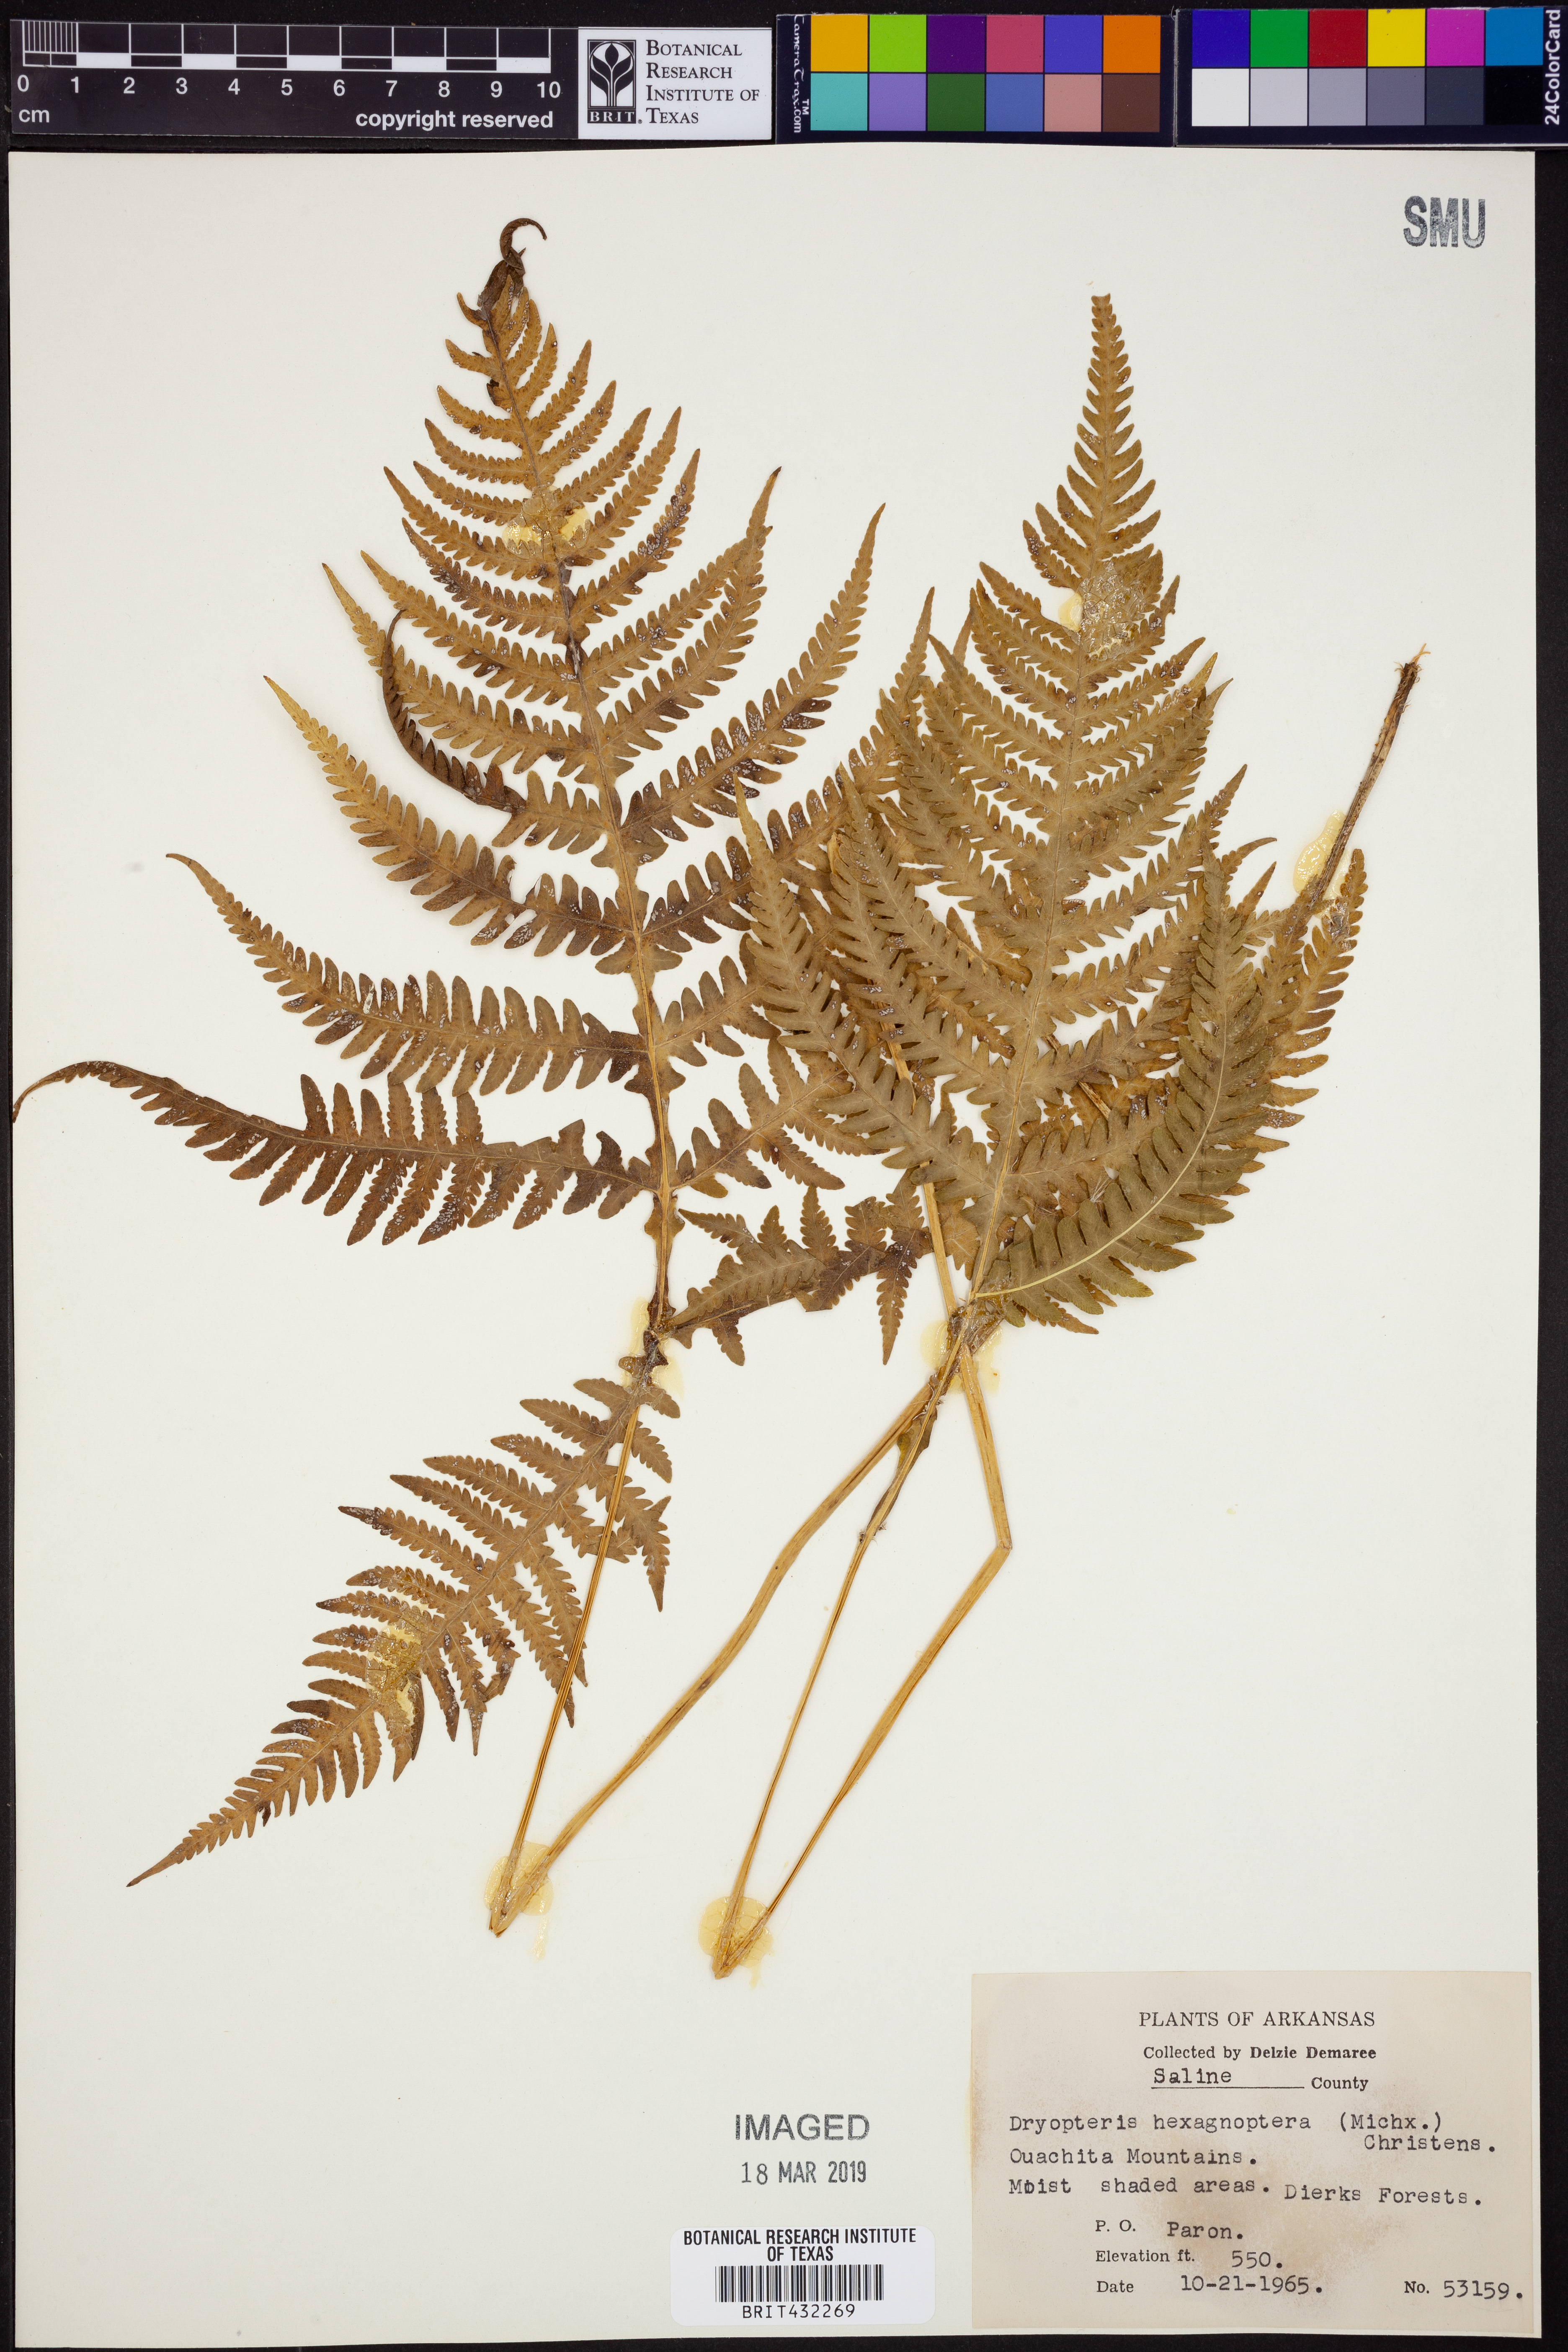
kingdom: Plantae
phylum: Tracheophyta
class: Polypodiopsida
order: Polypodiales
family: Dryopteridaceae
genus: Dryopteris
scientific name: Dryopteris hexagonaptera
